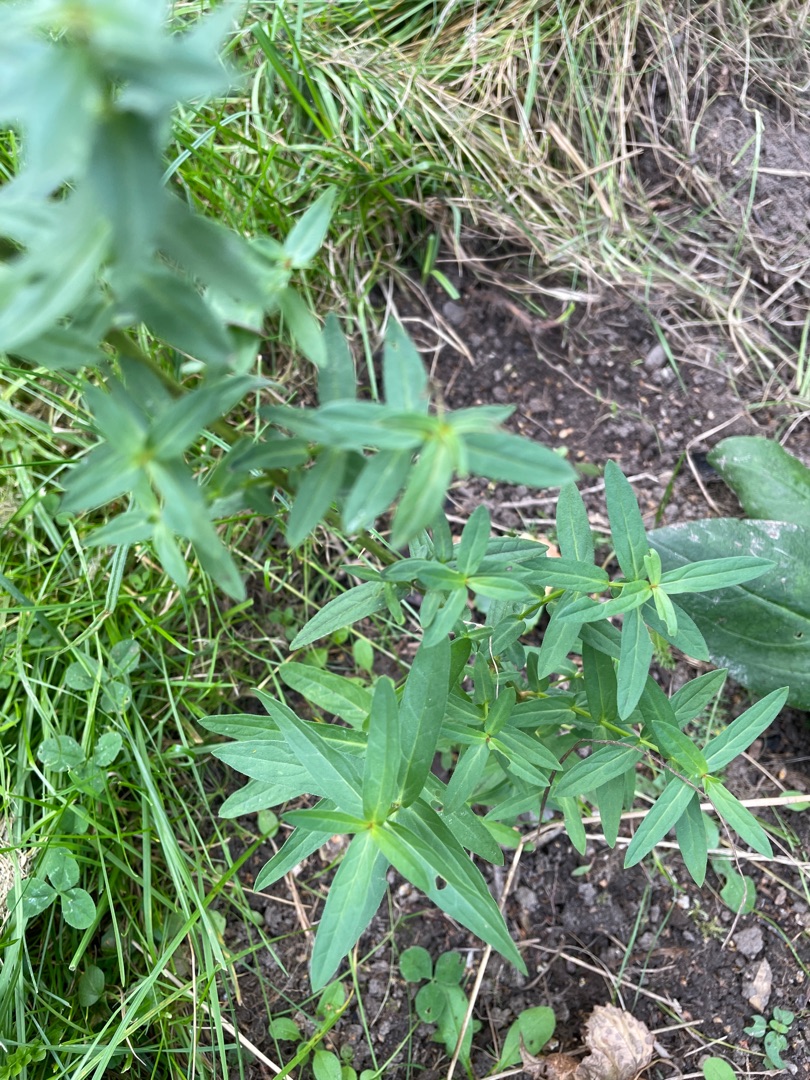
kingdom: Plantae
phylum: Tracheophyta
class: Magnoliopsida
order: Myrtales
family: Lythraceae
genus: Lythrum
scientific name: Lythrum salicaria
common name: Kattehale
